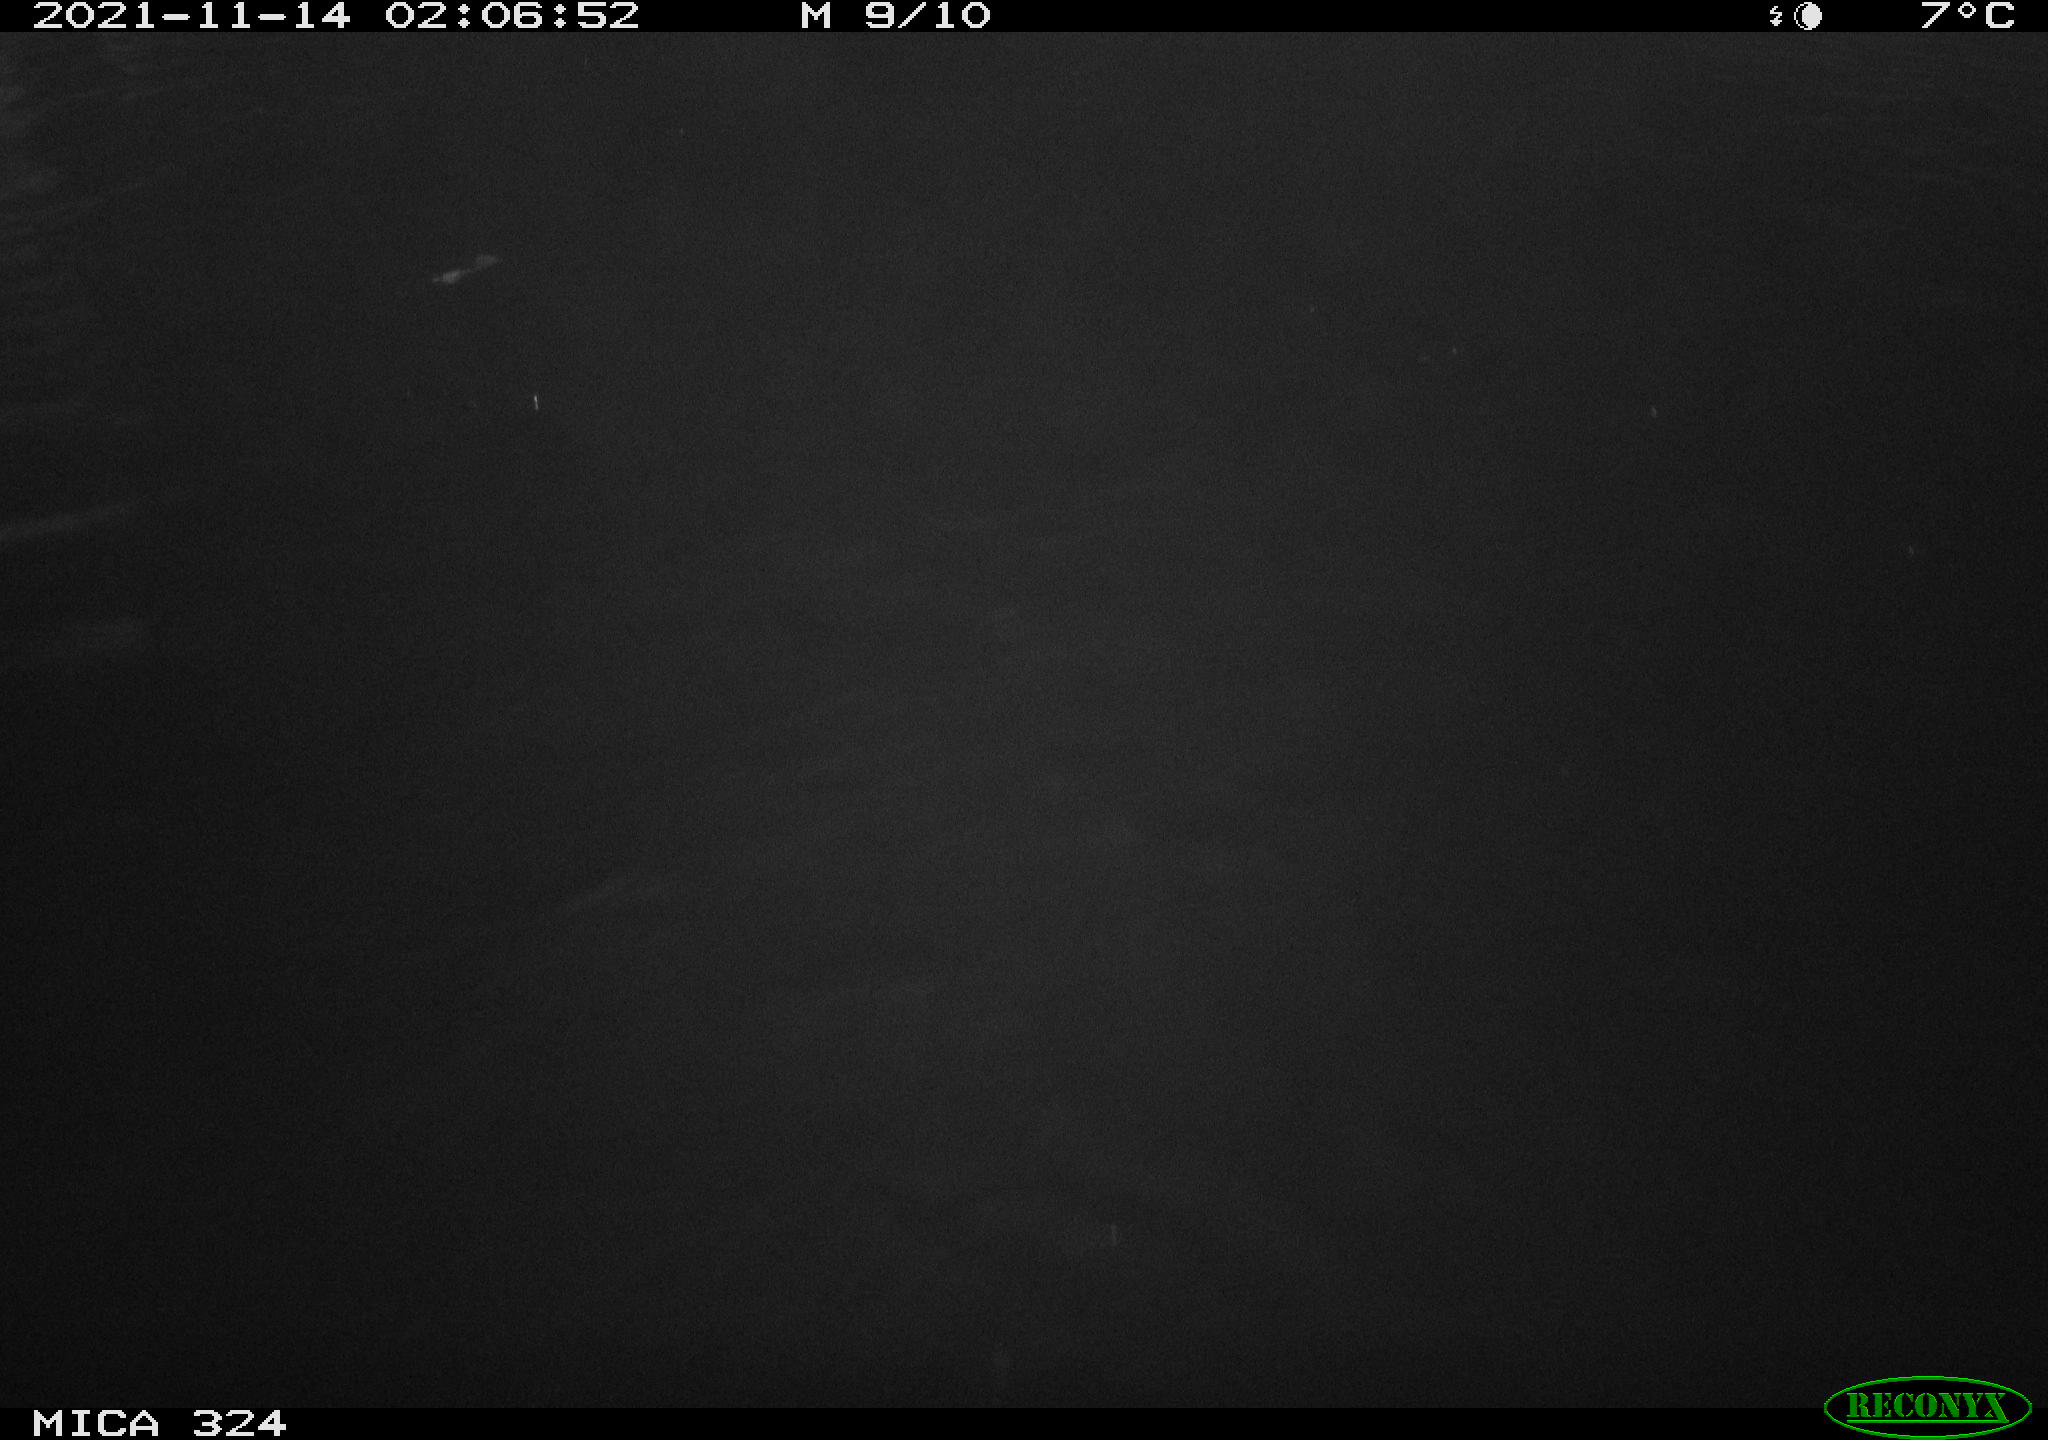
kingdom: Animalia
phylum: Chordata
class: Mammalia
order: Rodentia
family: Cricetidae
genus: Ondatra
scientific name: Ondatra zibethicus
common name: Muskrat
